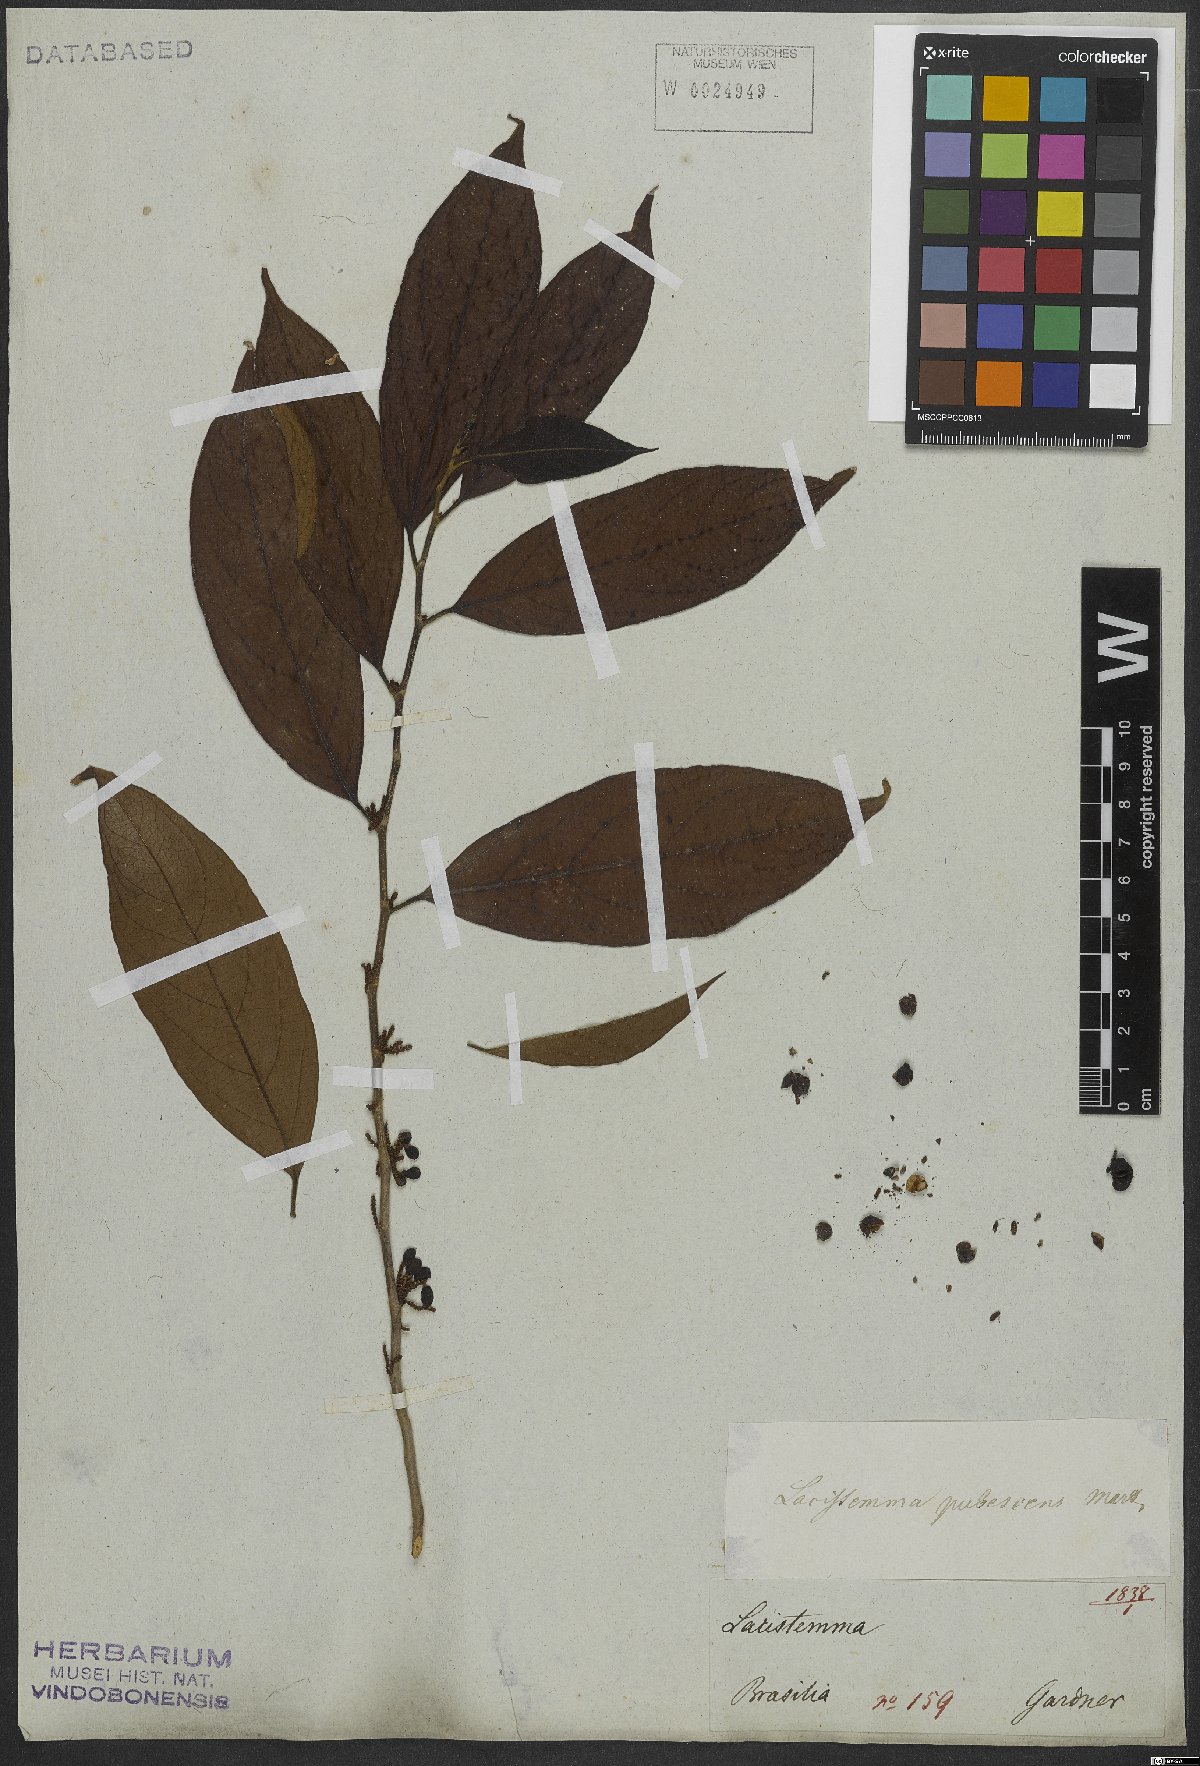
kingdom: Plantae
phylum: Tracheophyta
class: Magnoliopsida
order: Malpighiales
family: Lacistemataceae
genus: Lacistema
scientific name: Lacistema pubescens
